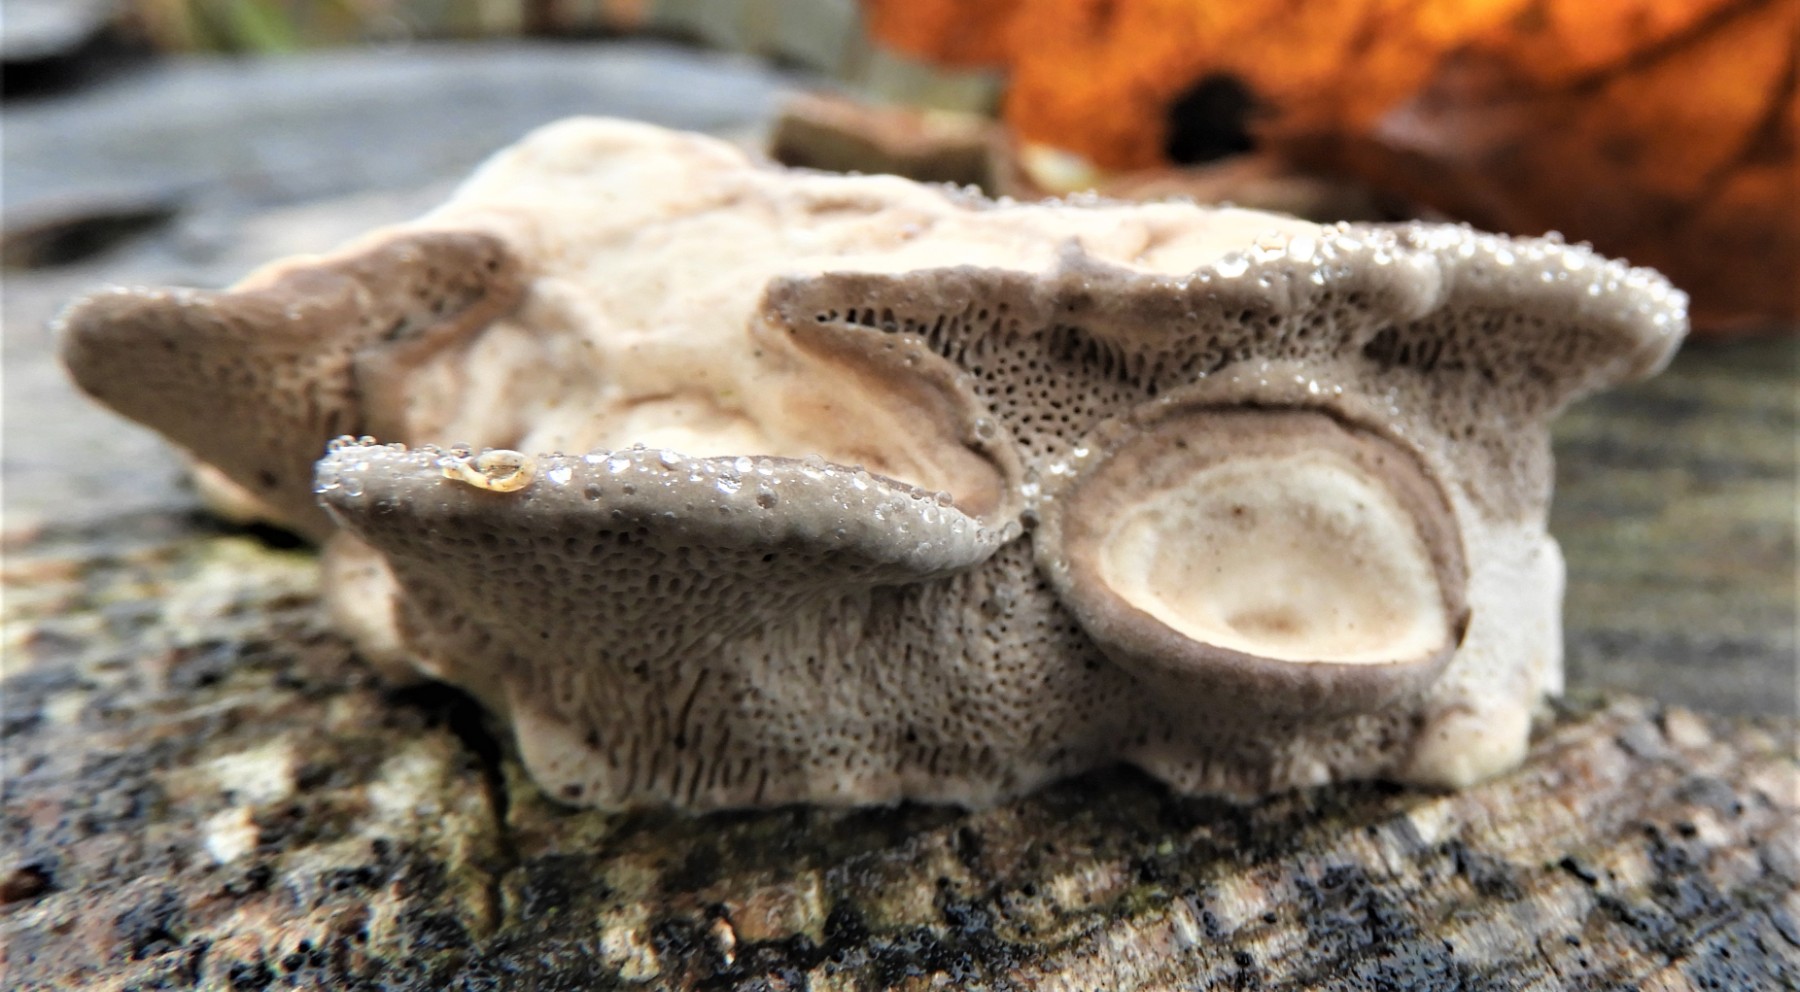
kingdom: Fungi
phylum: Basidiomycota
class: Agaricomycetes
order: Polyporales
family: Fomitopsidaceae
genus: Daedalea
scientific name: Daedalea quercina
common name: ege-labyrintsvamp
